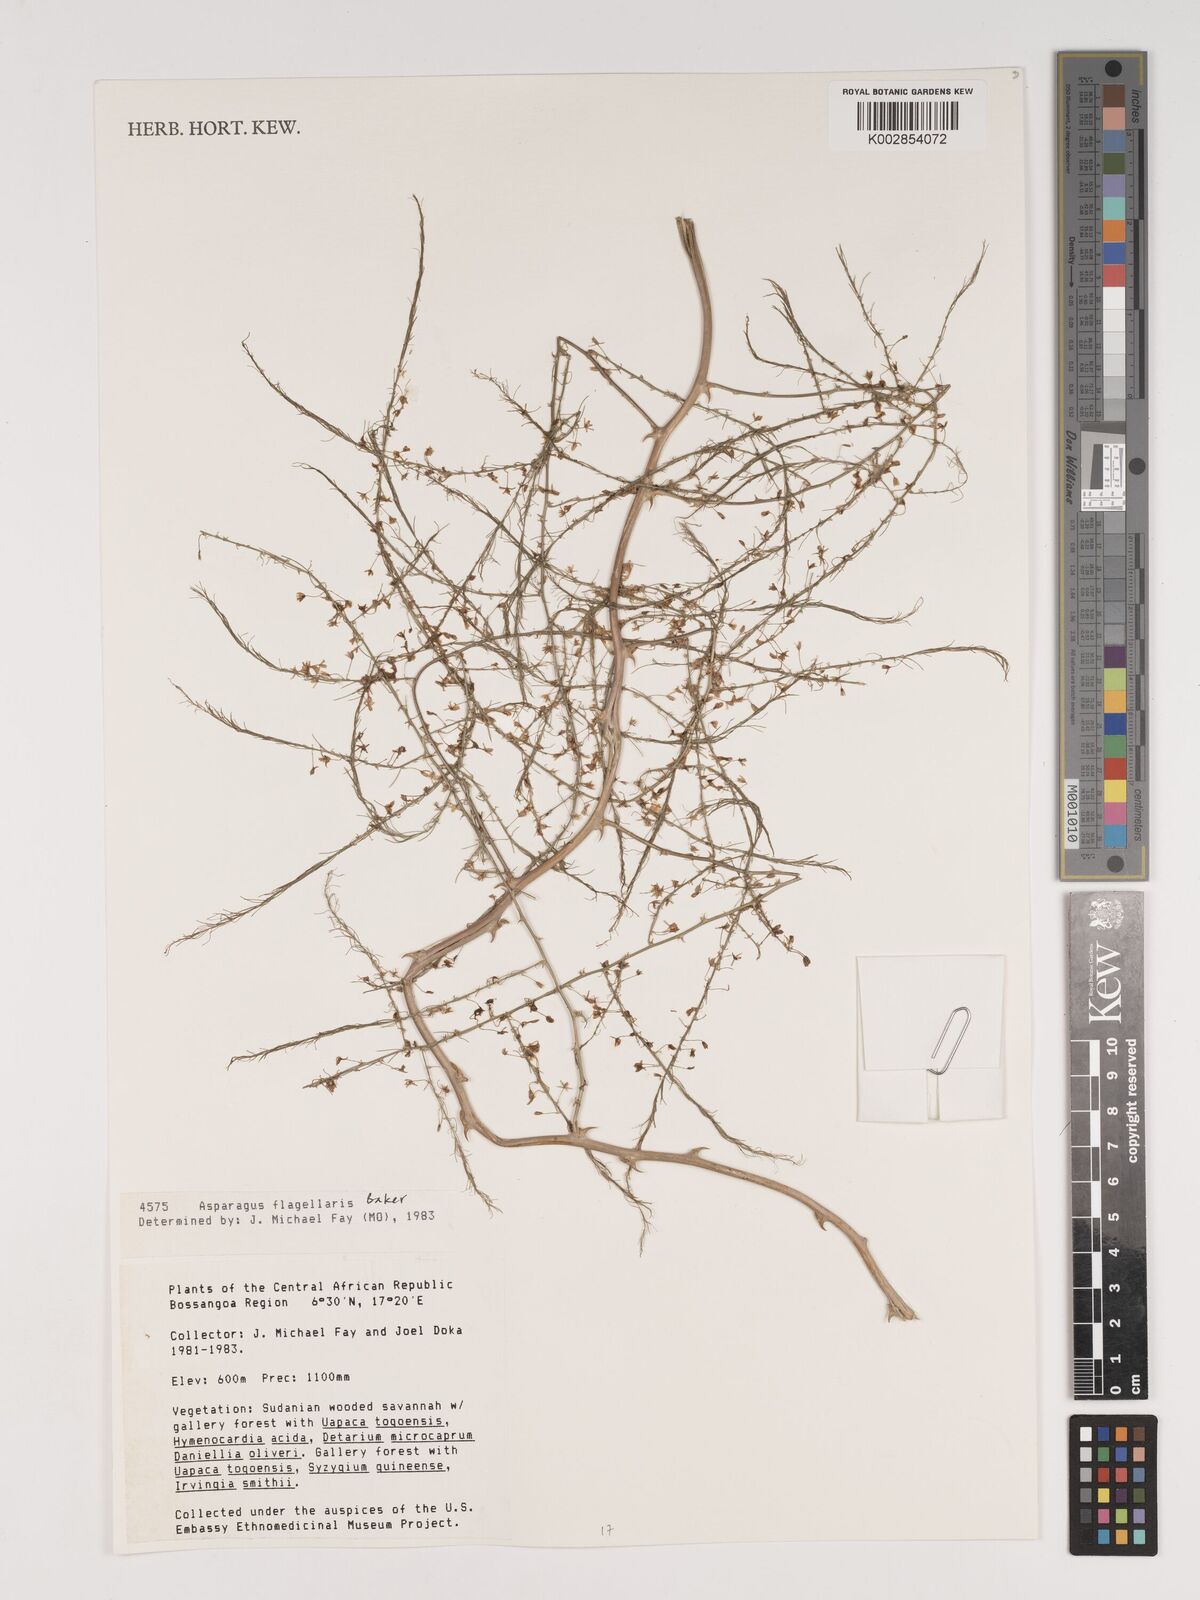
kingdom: Plantae
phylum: Tracheophyta
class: Liliopsida
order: Asparagales
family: Asparagaceae
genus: Asparagus
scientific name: Asparagus flagellaris
